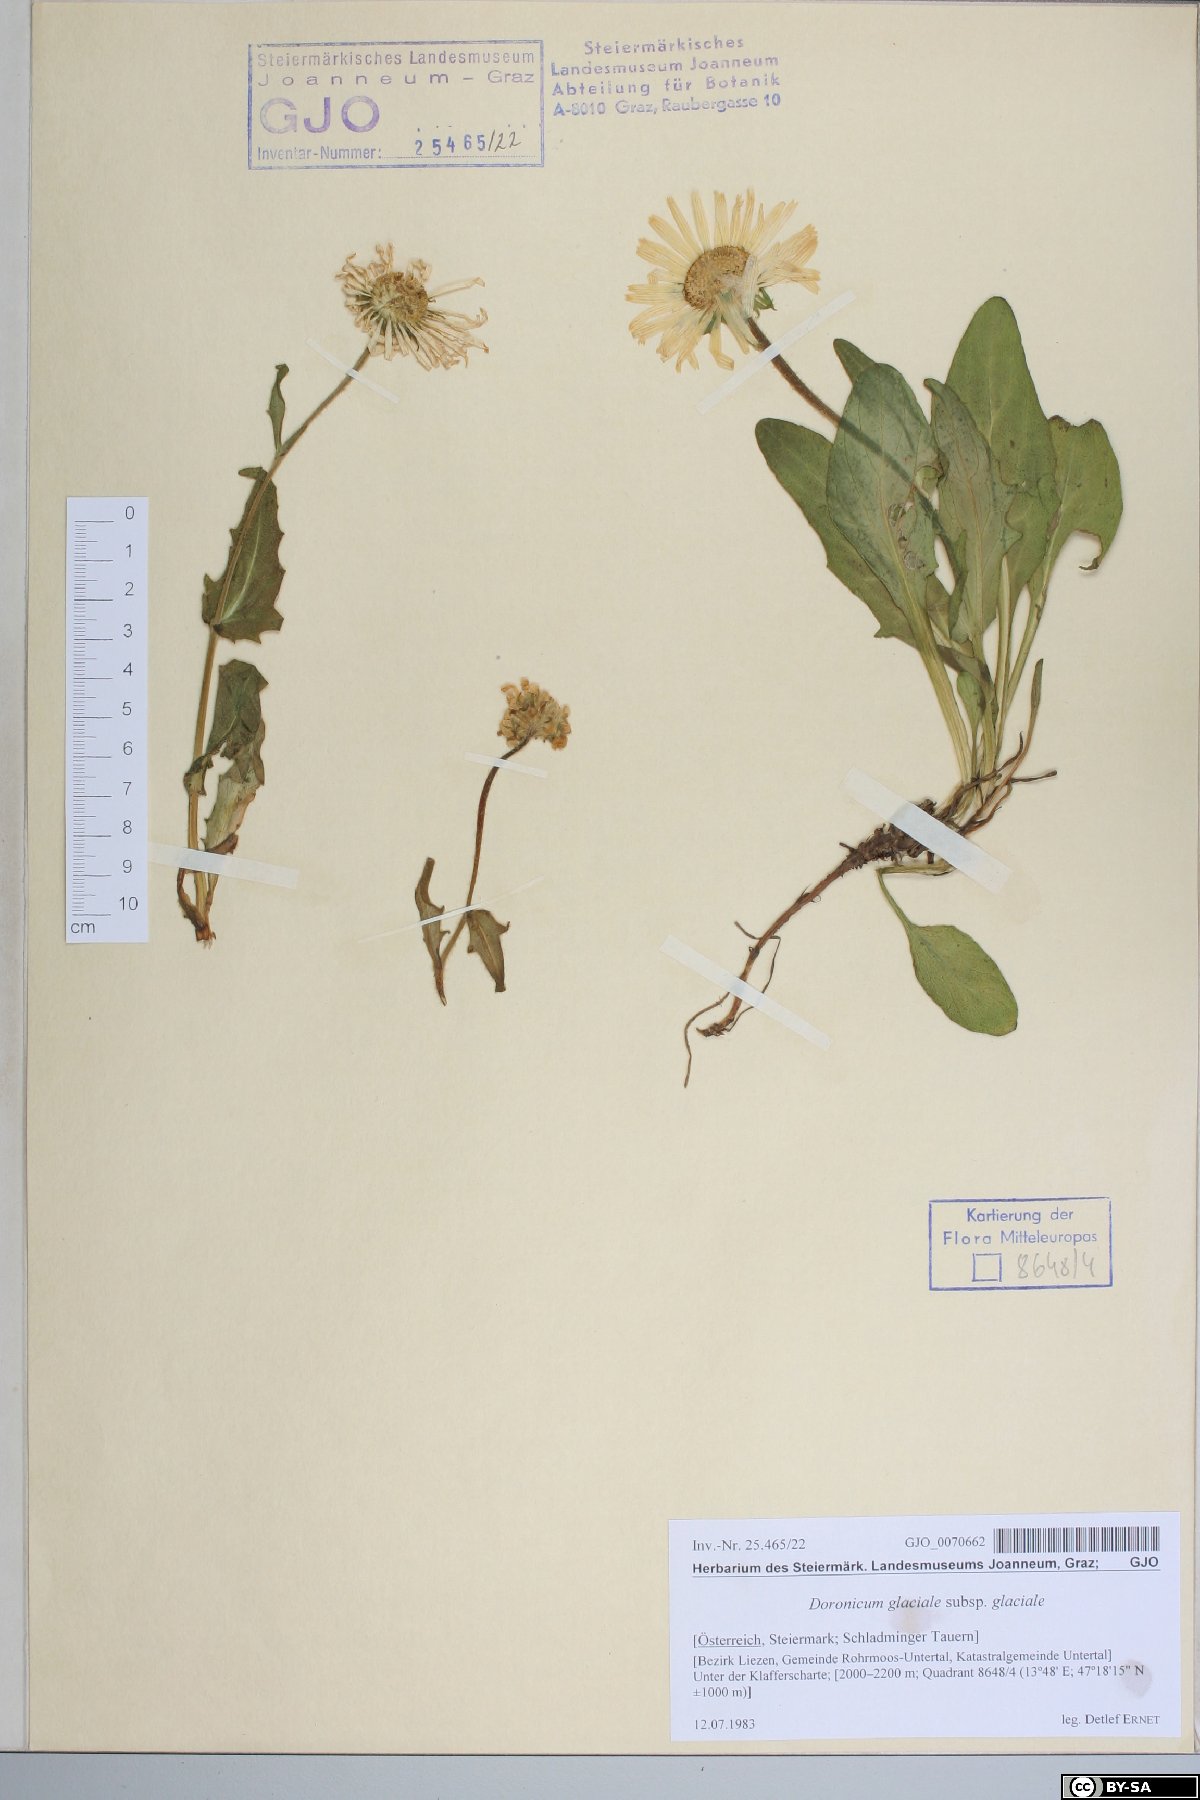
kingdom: Plantae
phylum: Tracheophyta
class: Magnoliopsida
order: Asterales
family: Asteraceae
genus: Doronicum
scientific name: Doronicum glaciale
